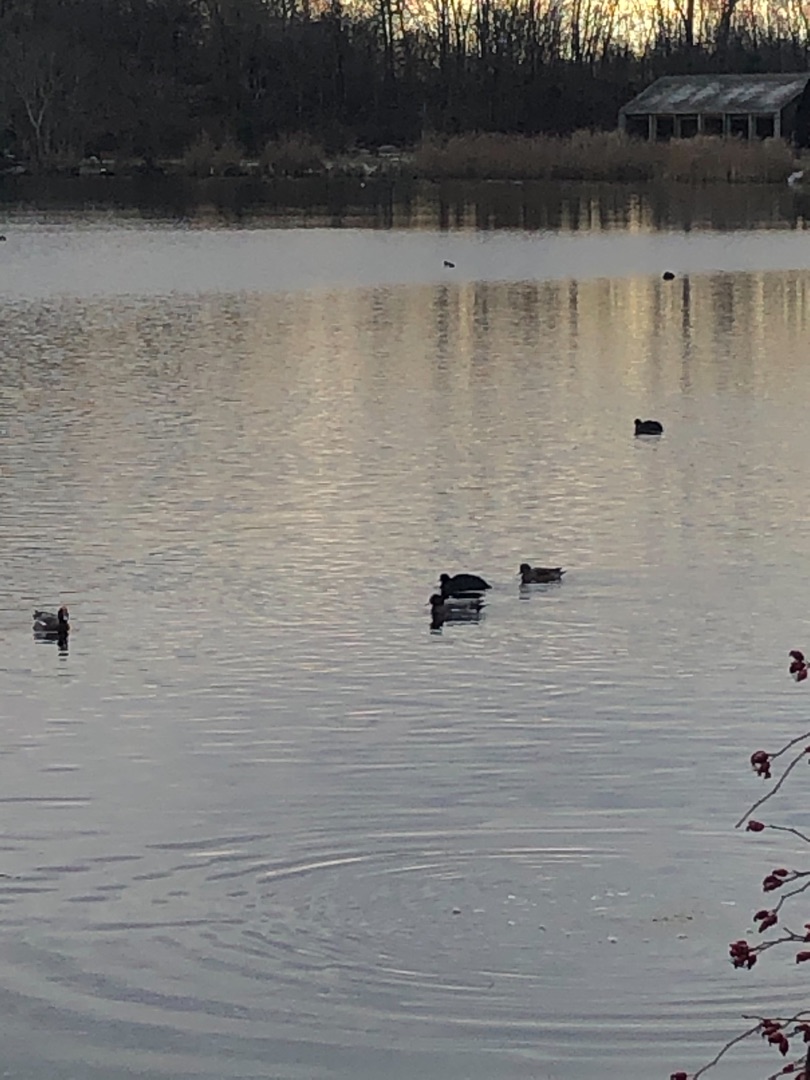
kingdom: Animalia
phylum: Chordata
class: Aves
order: Gruiformes
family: Rallidae
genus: Fulica
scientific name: Fulica atra
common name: Blishøne
